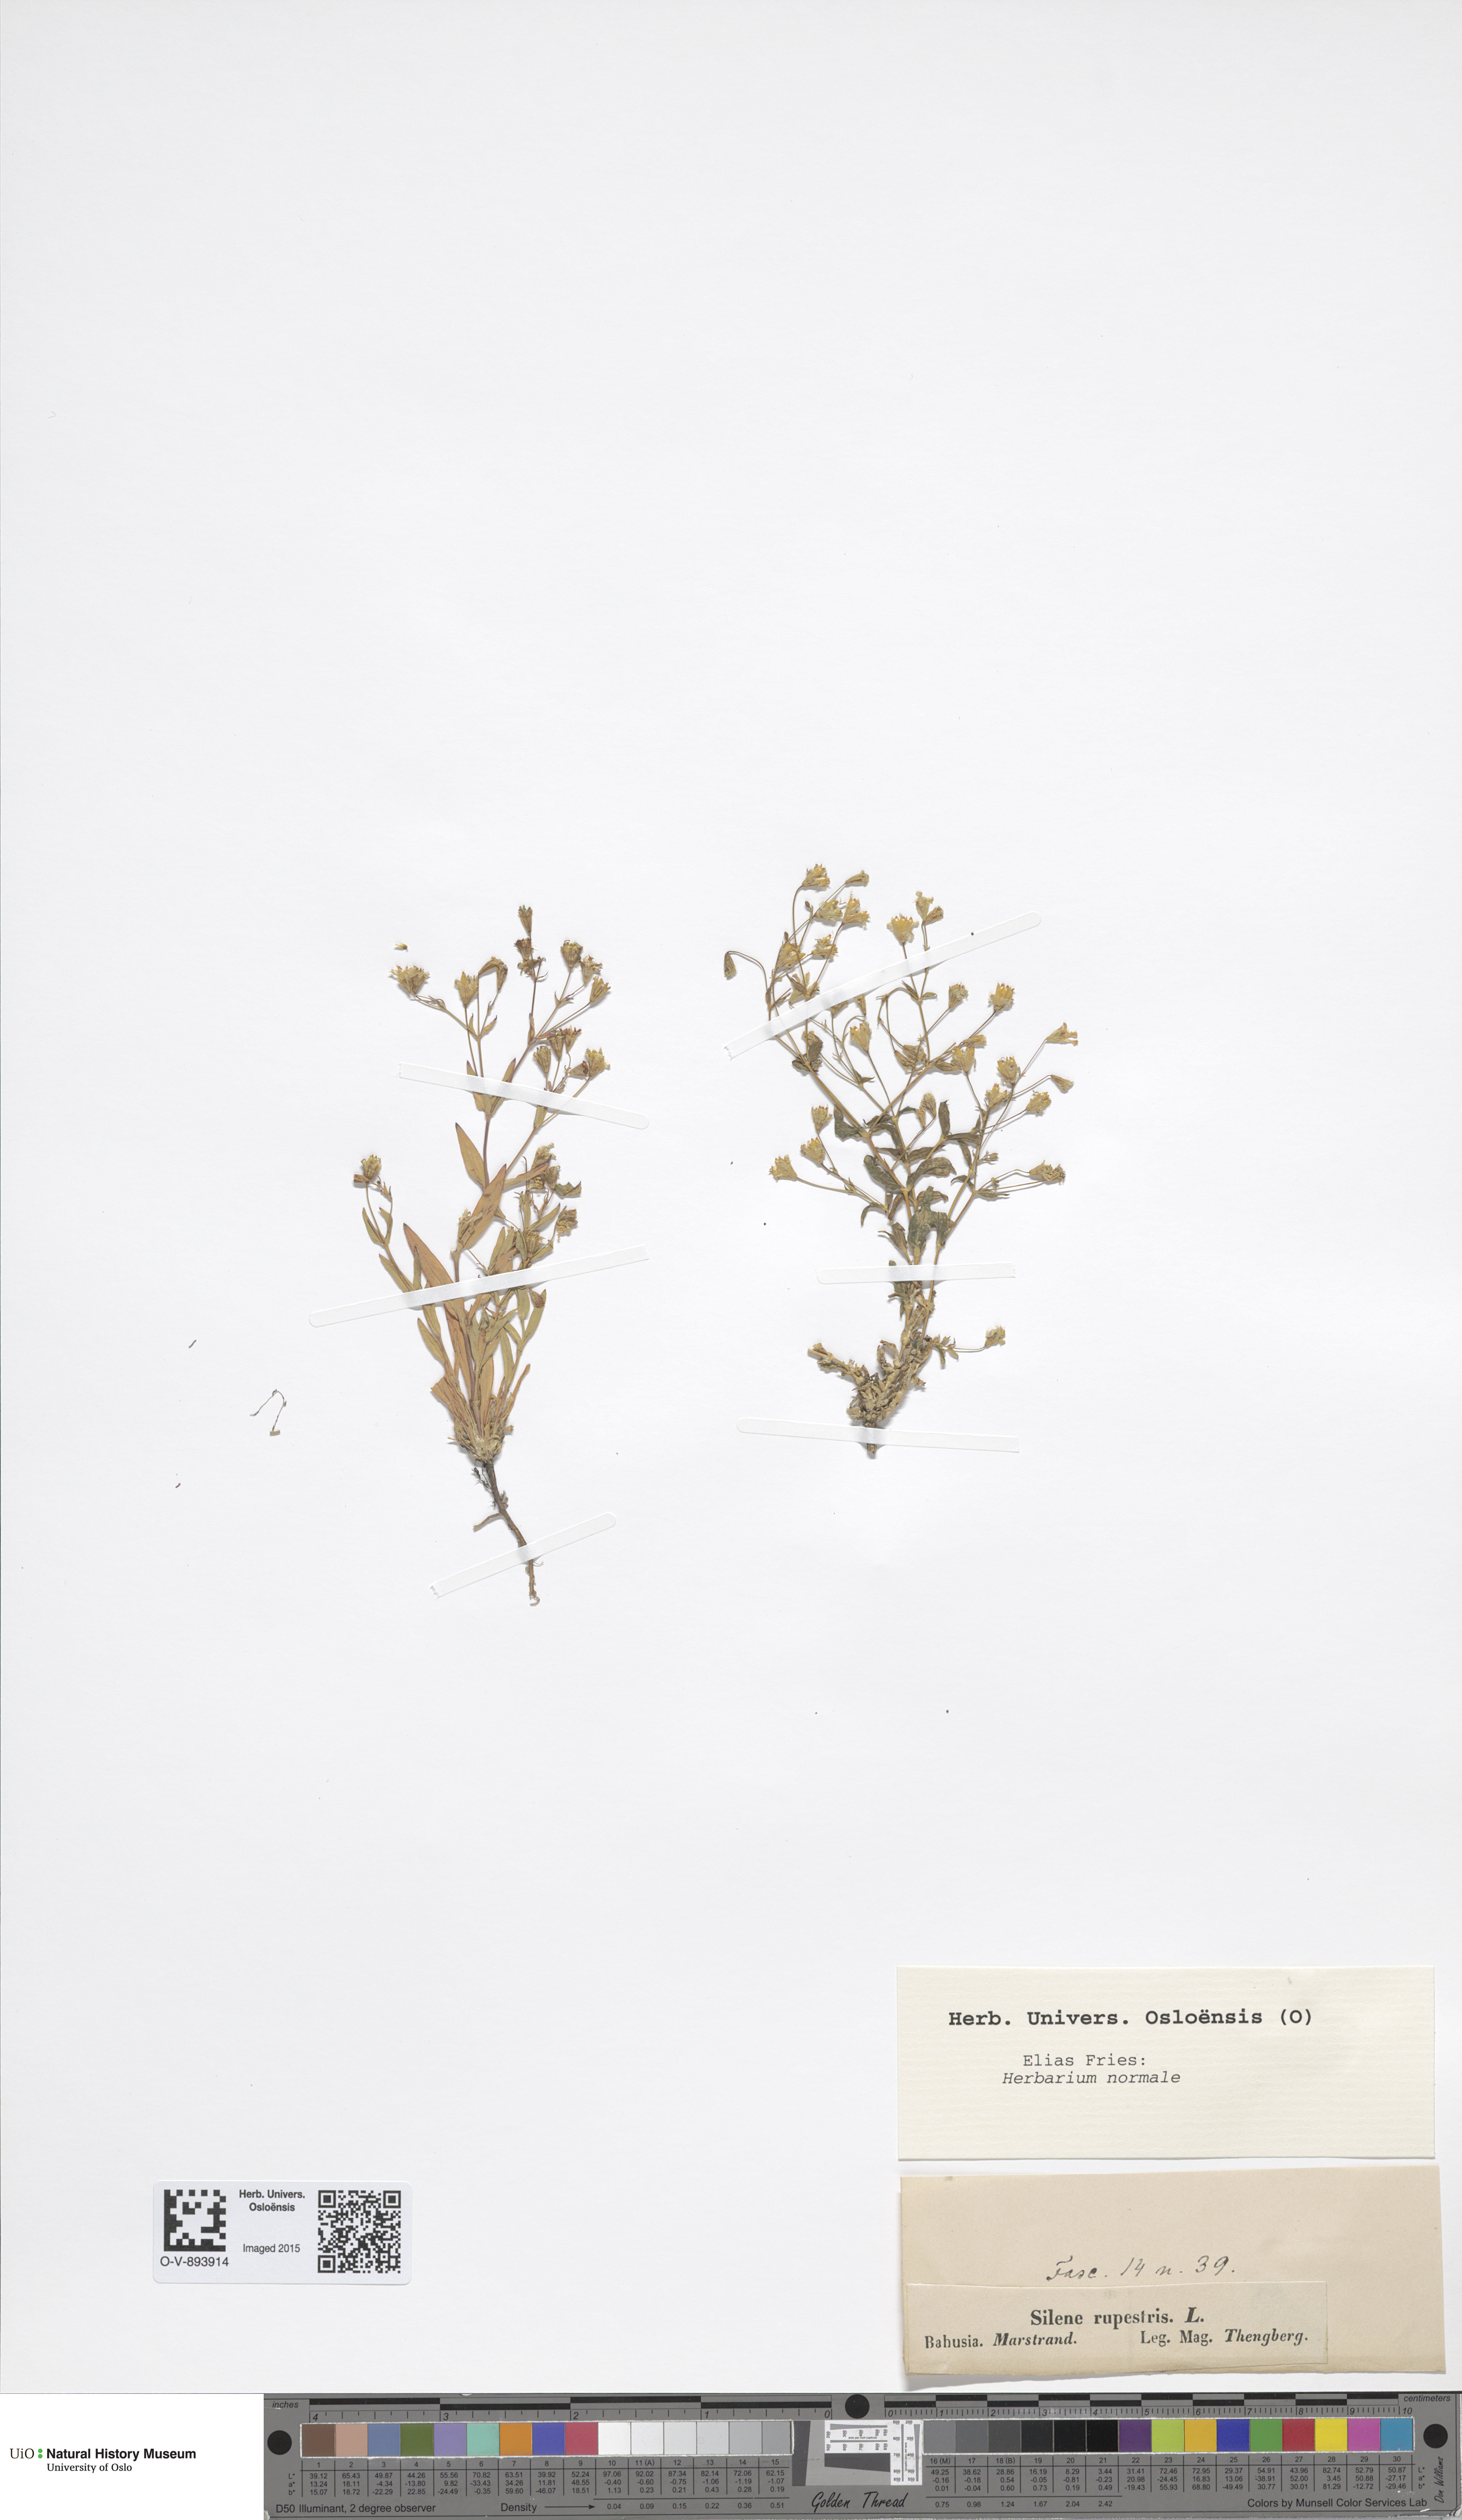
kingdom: Plantae
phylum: Tracheophyta
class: Magnoliopsida
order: Caryophyllales
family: Caryophyllaceae
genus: Atocion
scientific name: Atocion rupestre
